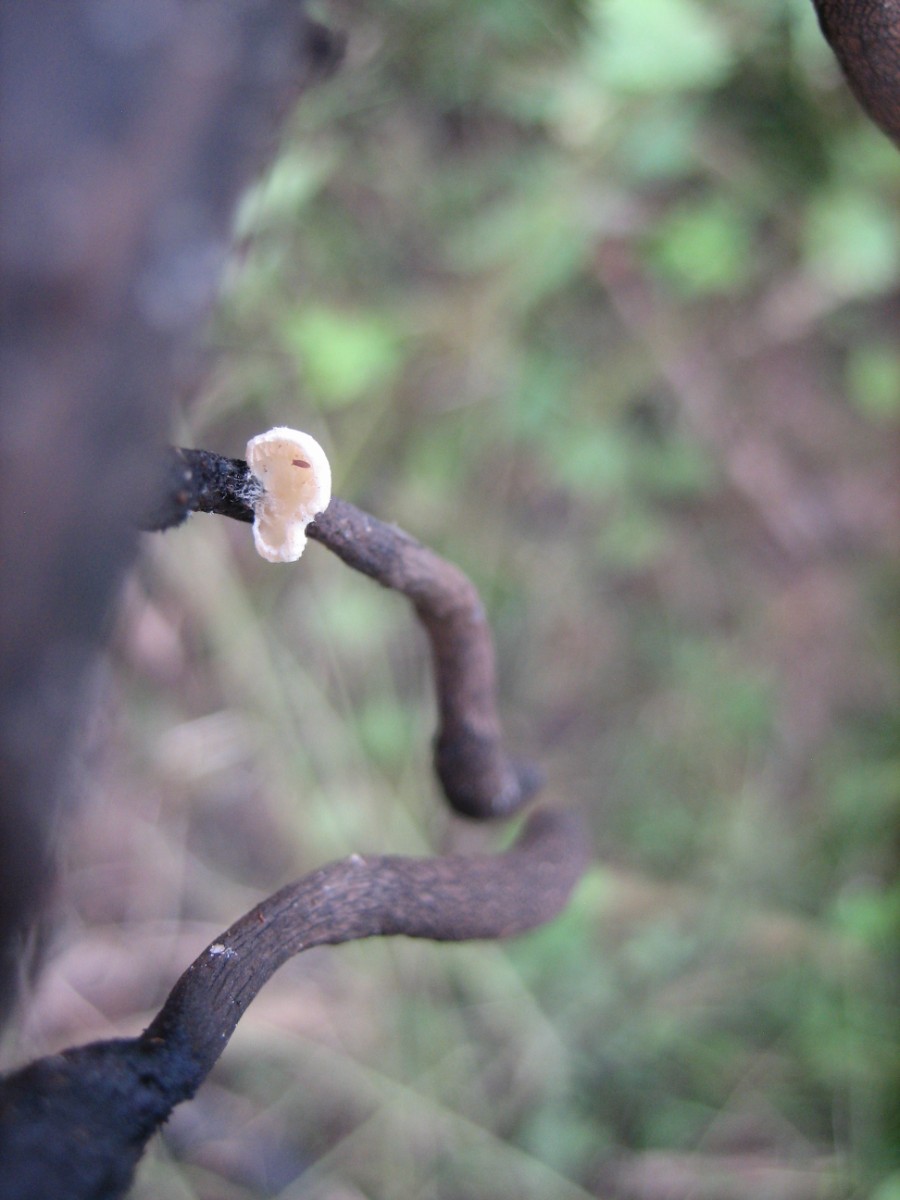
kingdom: Fungi
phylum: Basidiomycota
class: Agaricomycetes
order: Agaricales
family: Entolomataceae
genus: Clitopilus
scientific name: Clitopilus hobsonii
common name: Miller's oysterling
